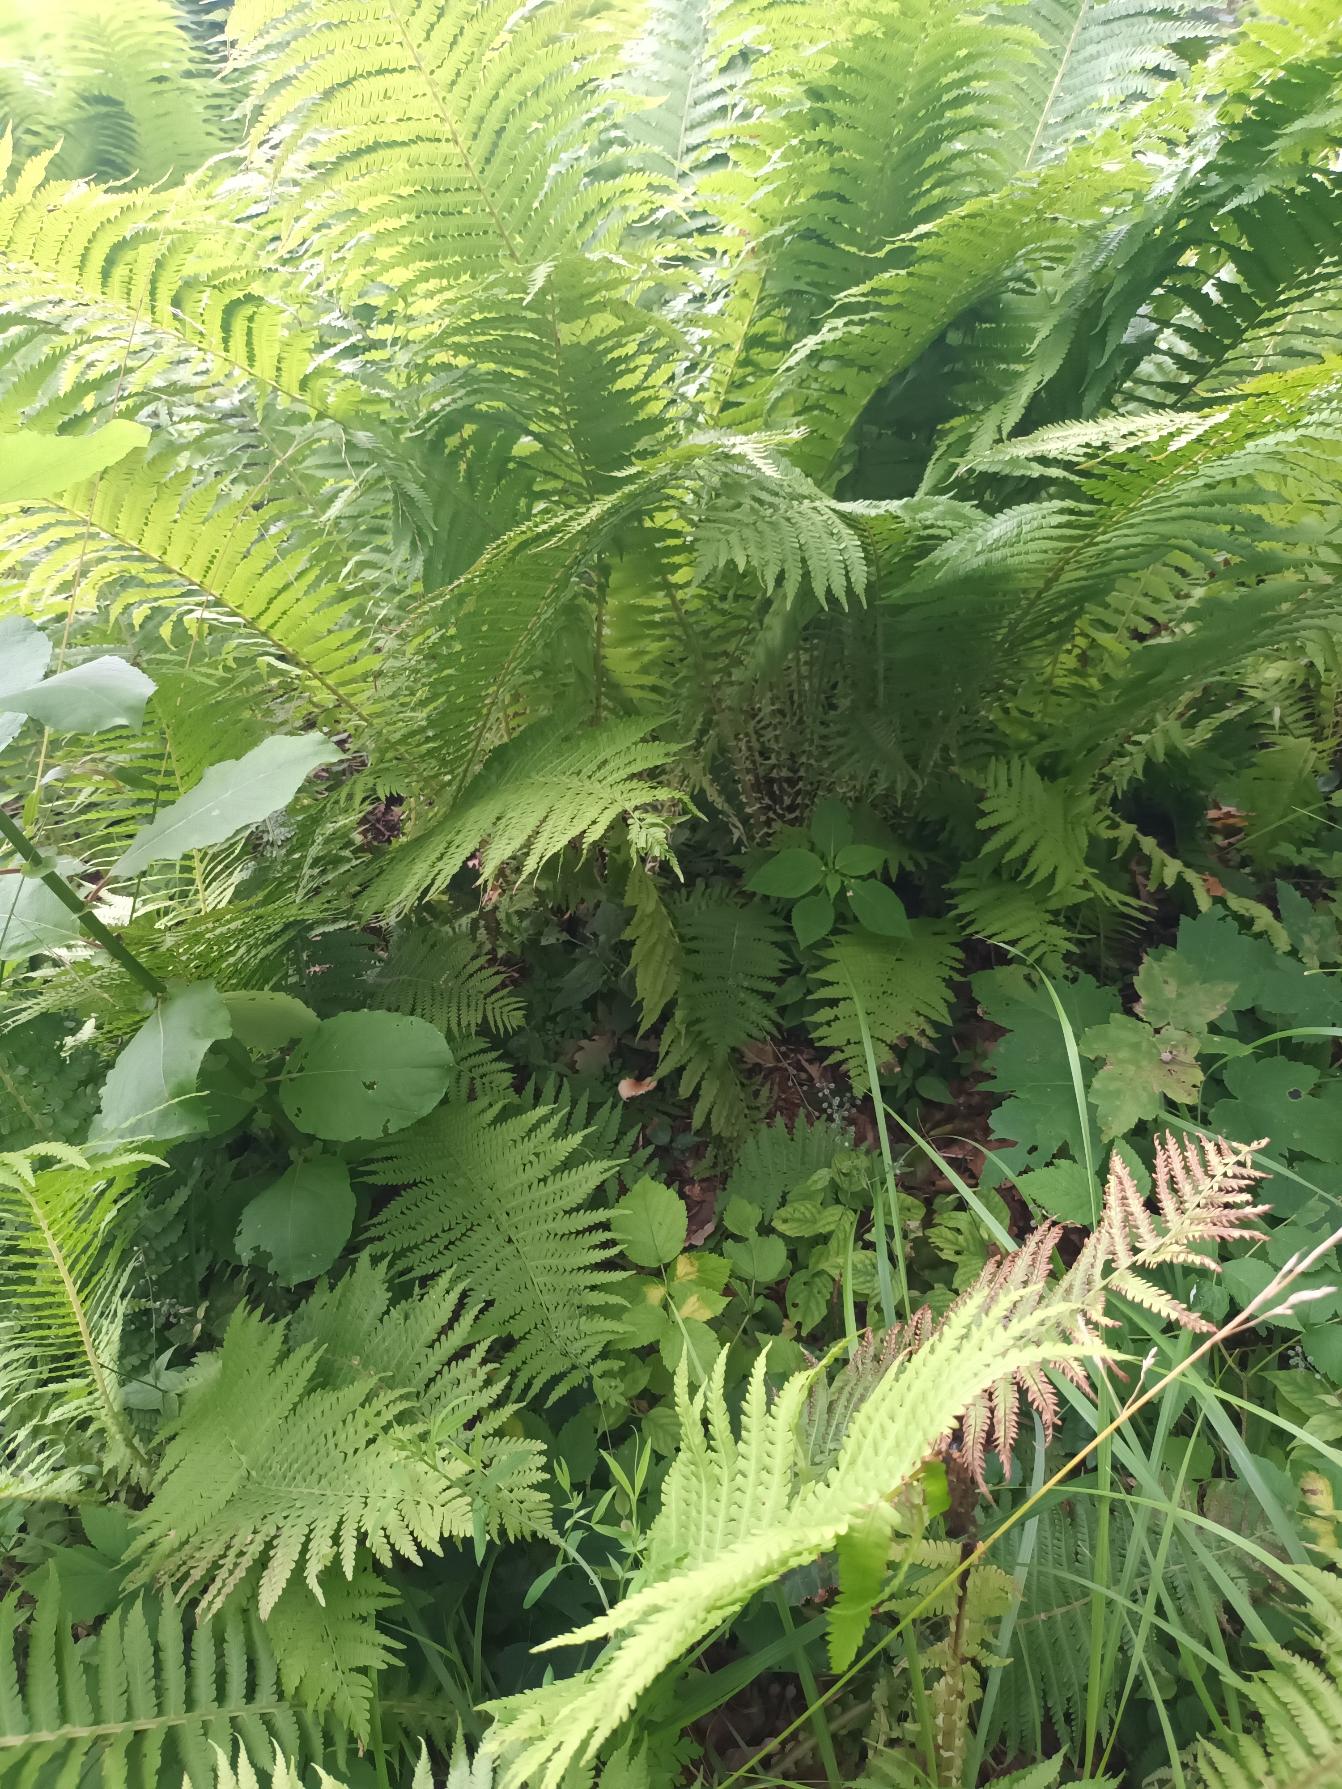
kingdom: Plantae
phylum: Tracheophyta
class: Polypodiopsida
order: Polypodiales
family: Onocleaceae
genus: Matteuccia
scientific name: Matteuccia struthiopteris
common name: Strudsvinge
